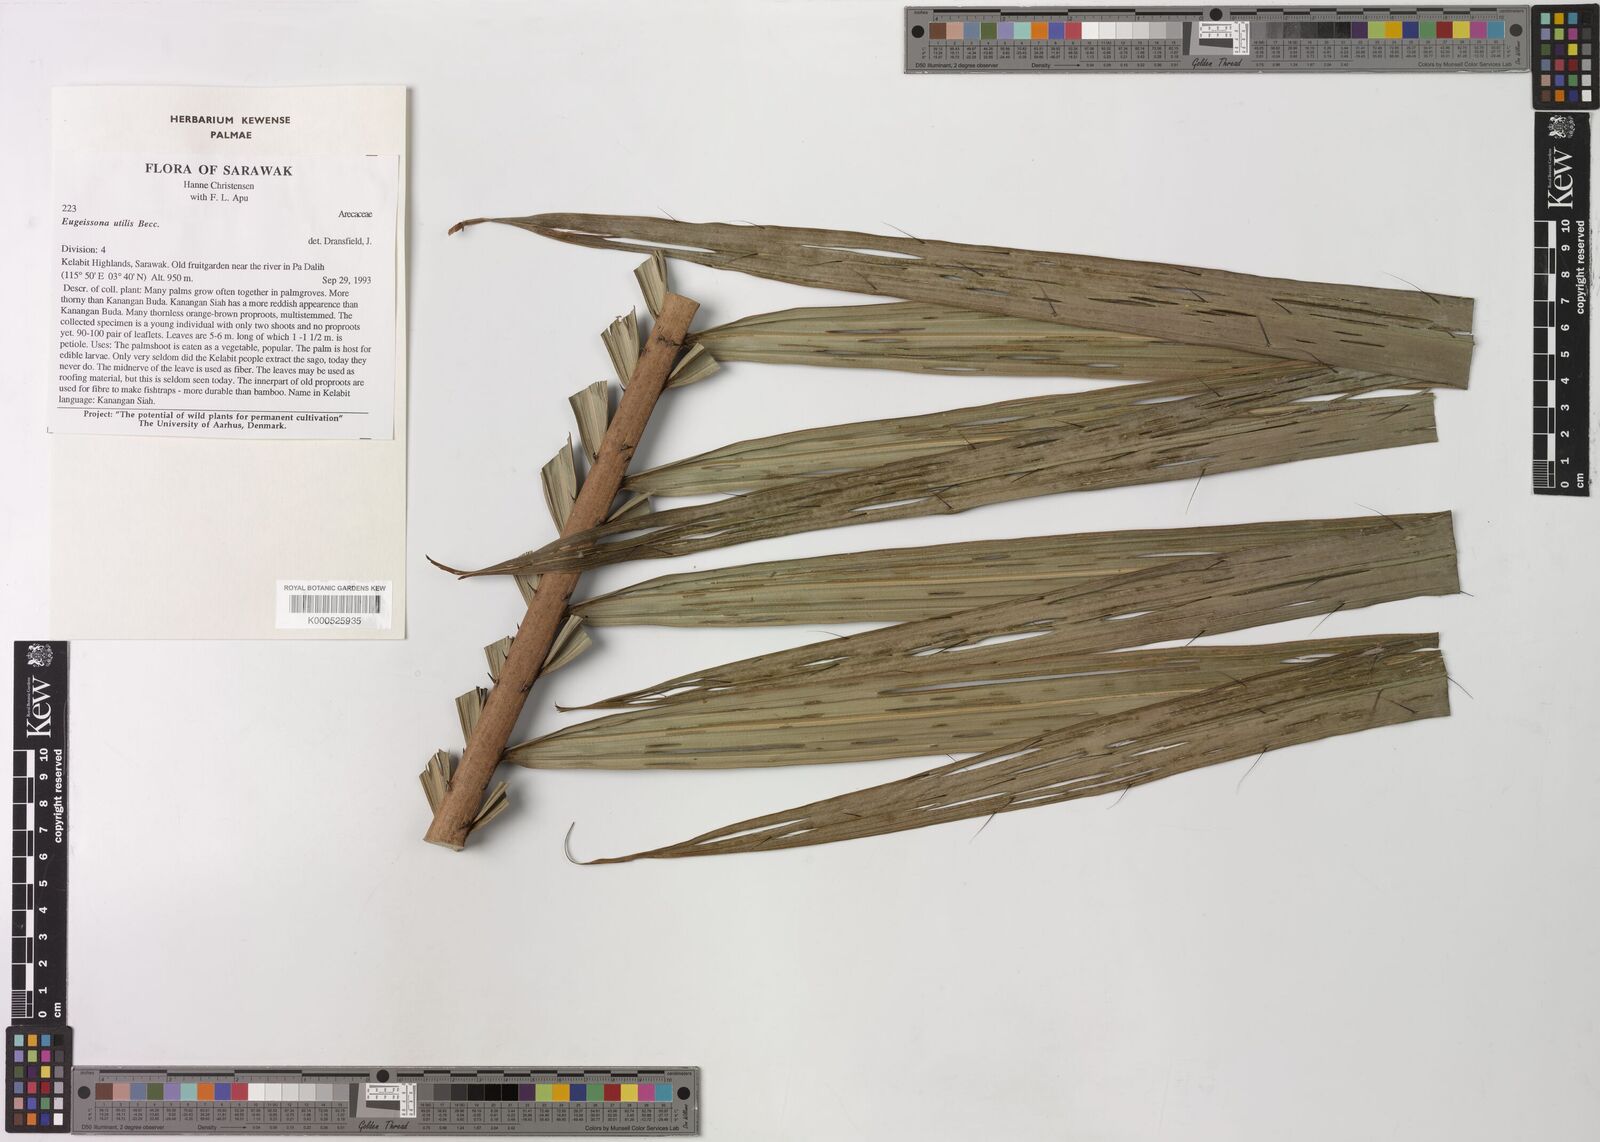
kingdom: Plantae
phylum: Tracheophyta
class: Liliopsida
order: Arecales
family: Arecaceae
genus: Eugeissona
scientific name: Eugeissona utilis
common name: Wild bornean sago palm
